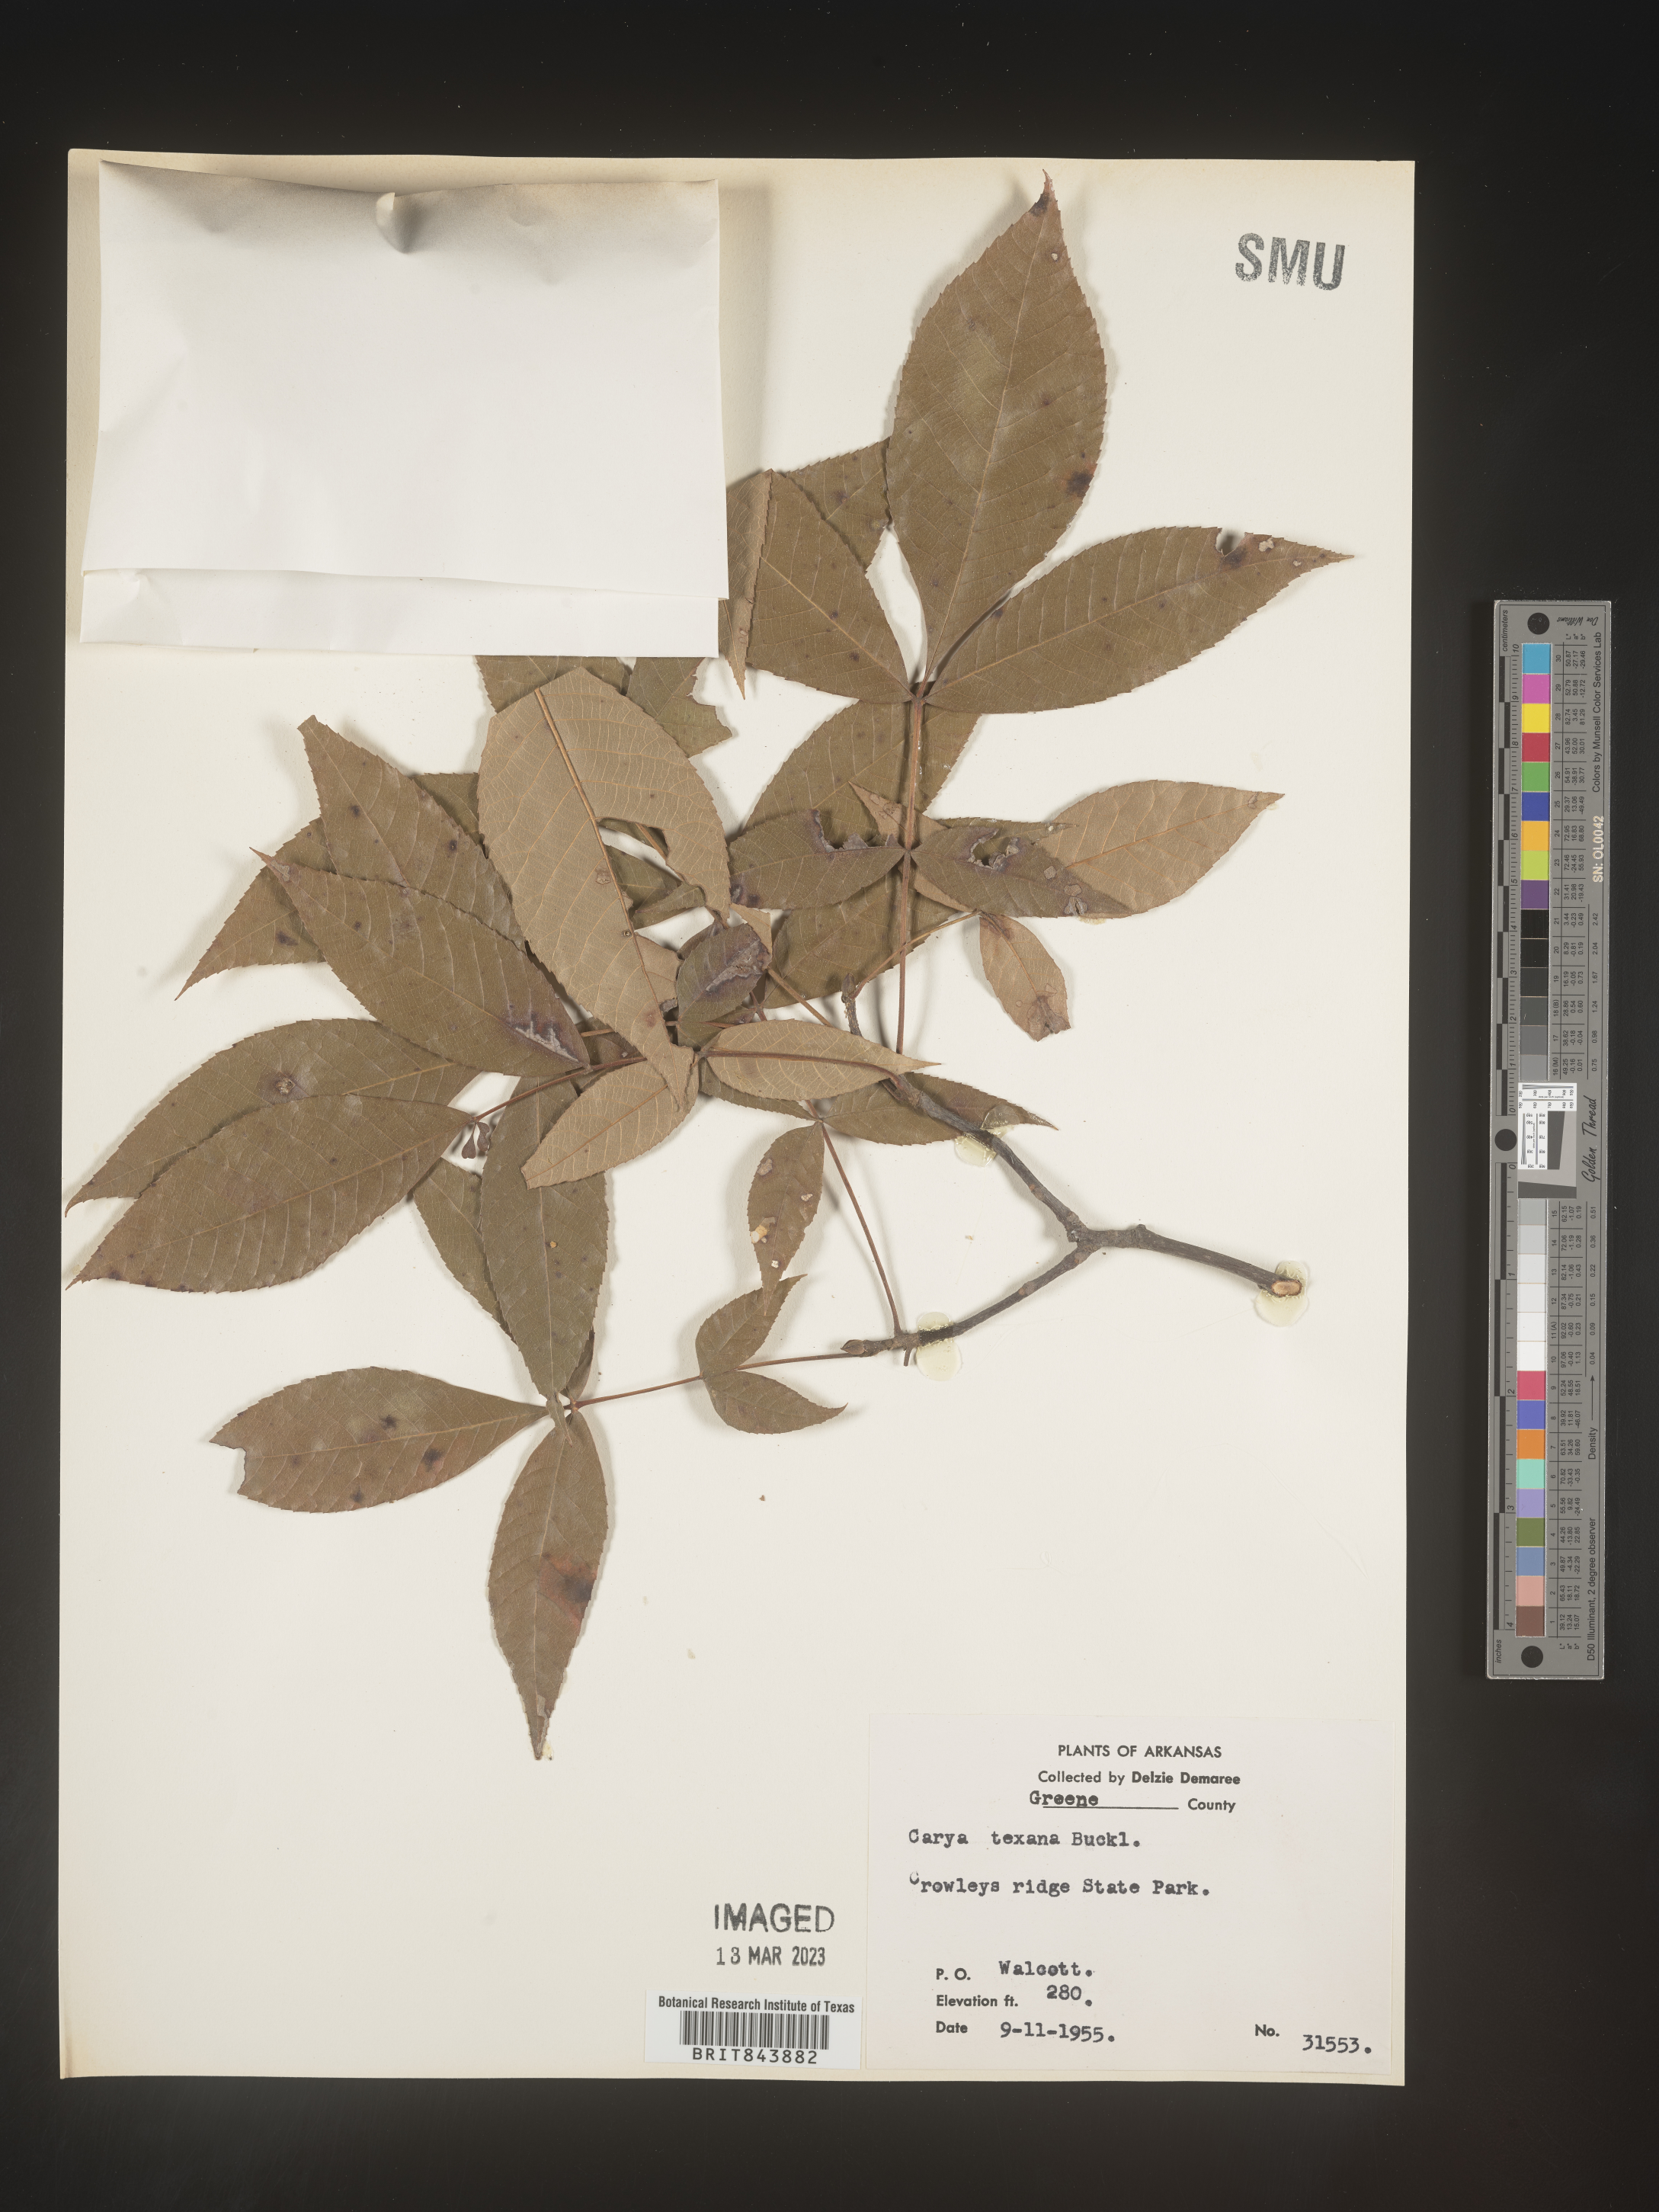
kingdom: Plantae
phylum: Tracheophyta
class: Magnoliopsida
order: Fagales
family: Juglandaceae
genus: Carya
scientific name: Carya texana
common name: Black hickory
